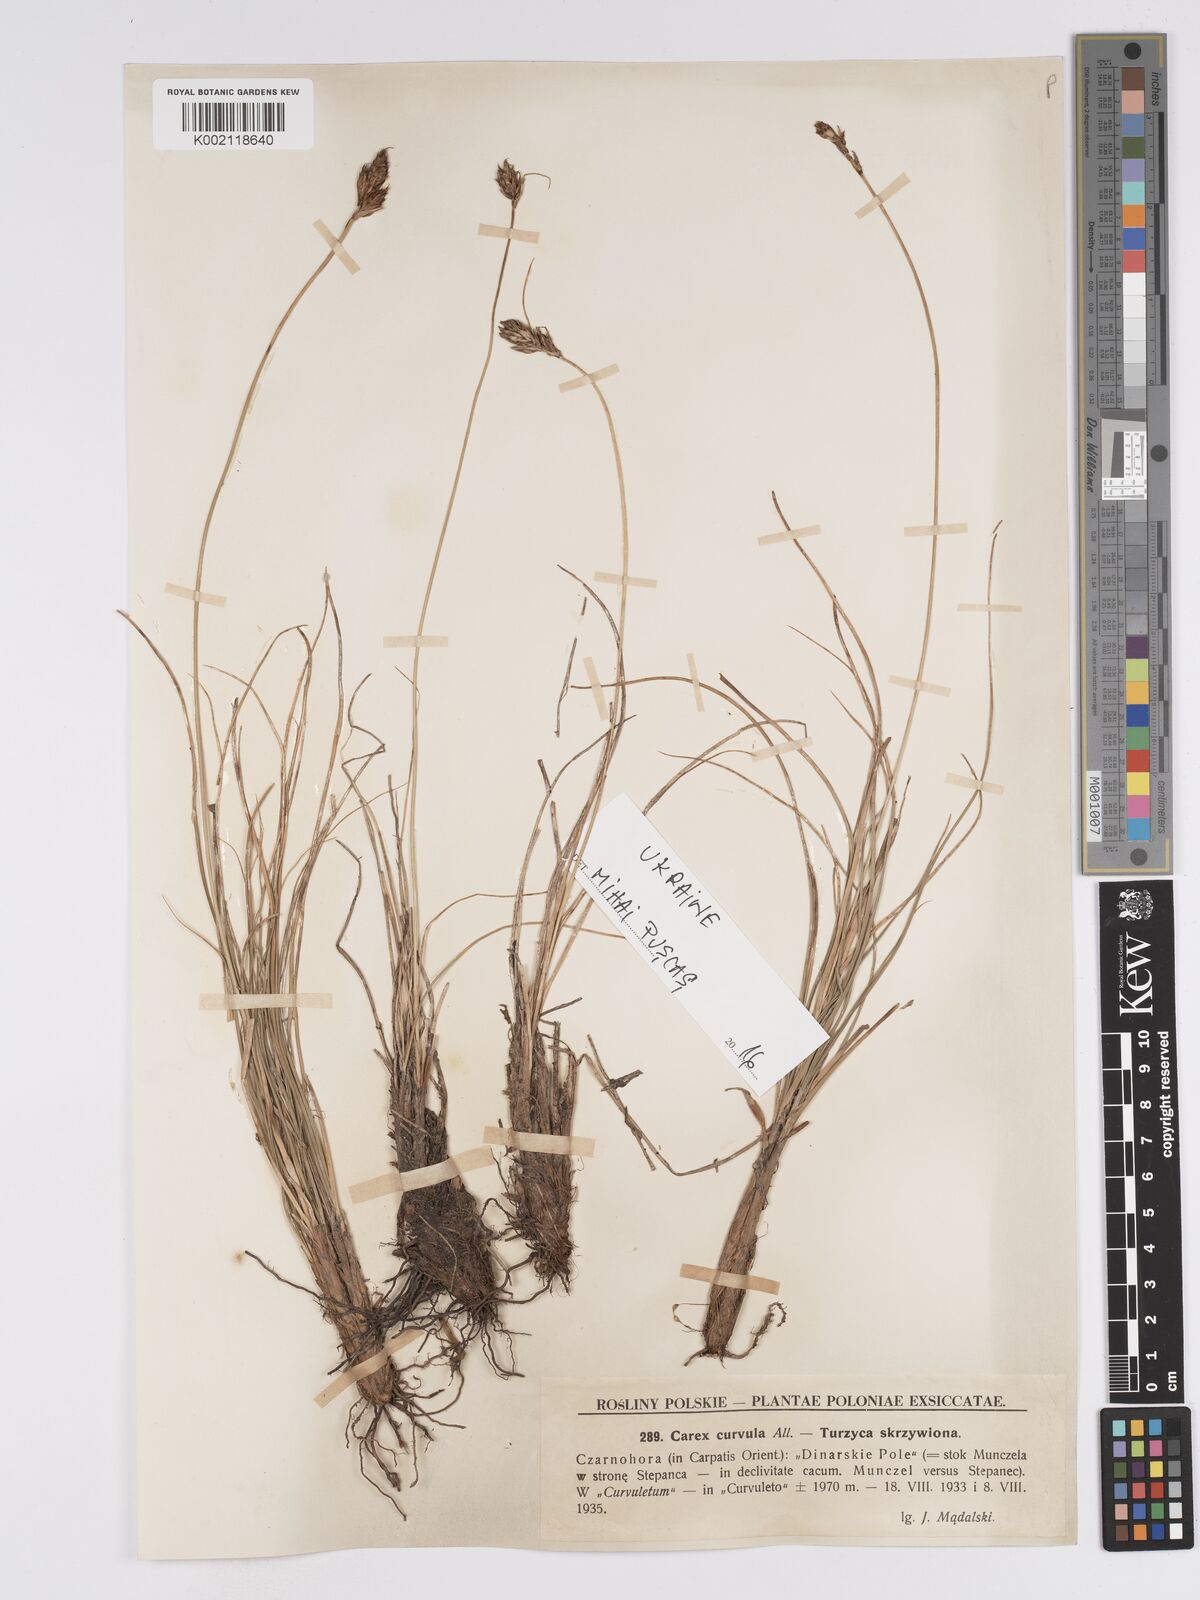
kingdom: Plantae
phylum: Tracheophyta
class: Liliopsida
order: Poales
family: Cyperaceae
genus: Carex
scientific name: Carex curvula
